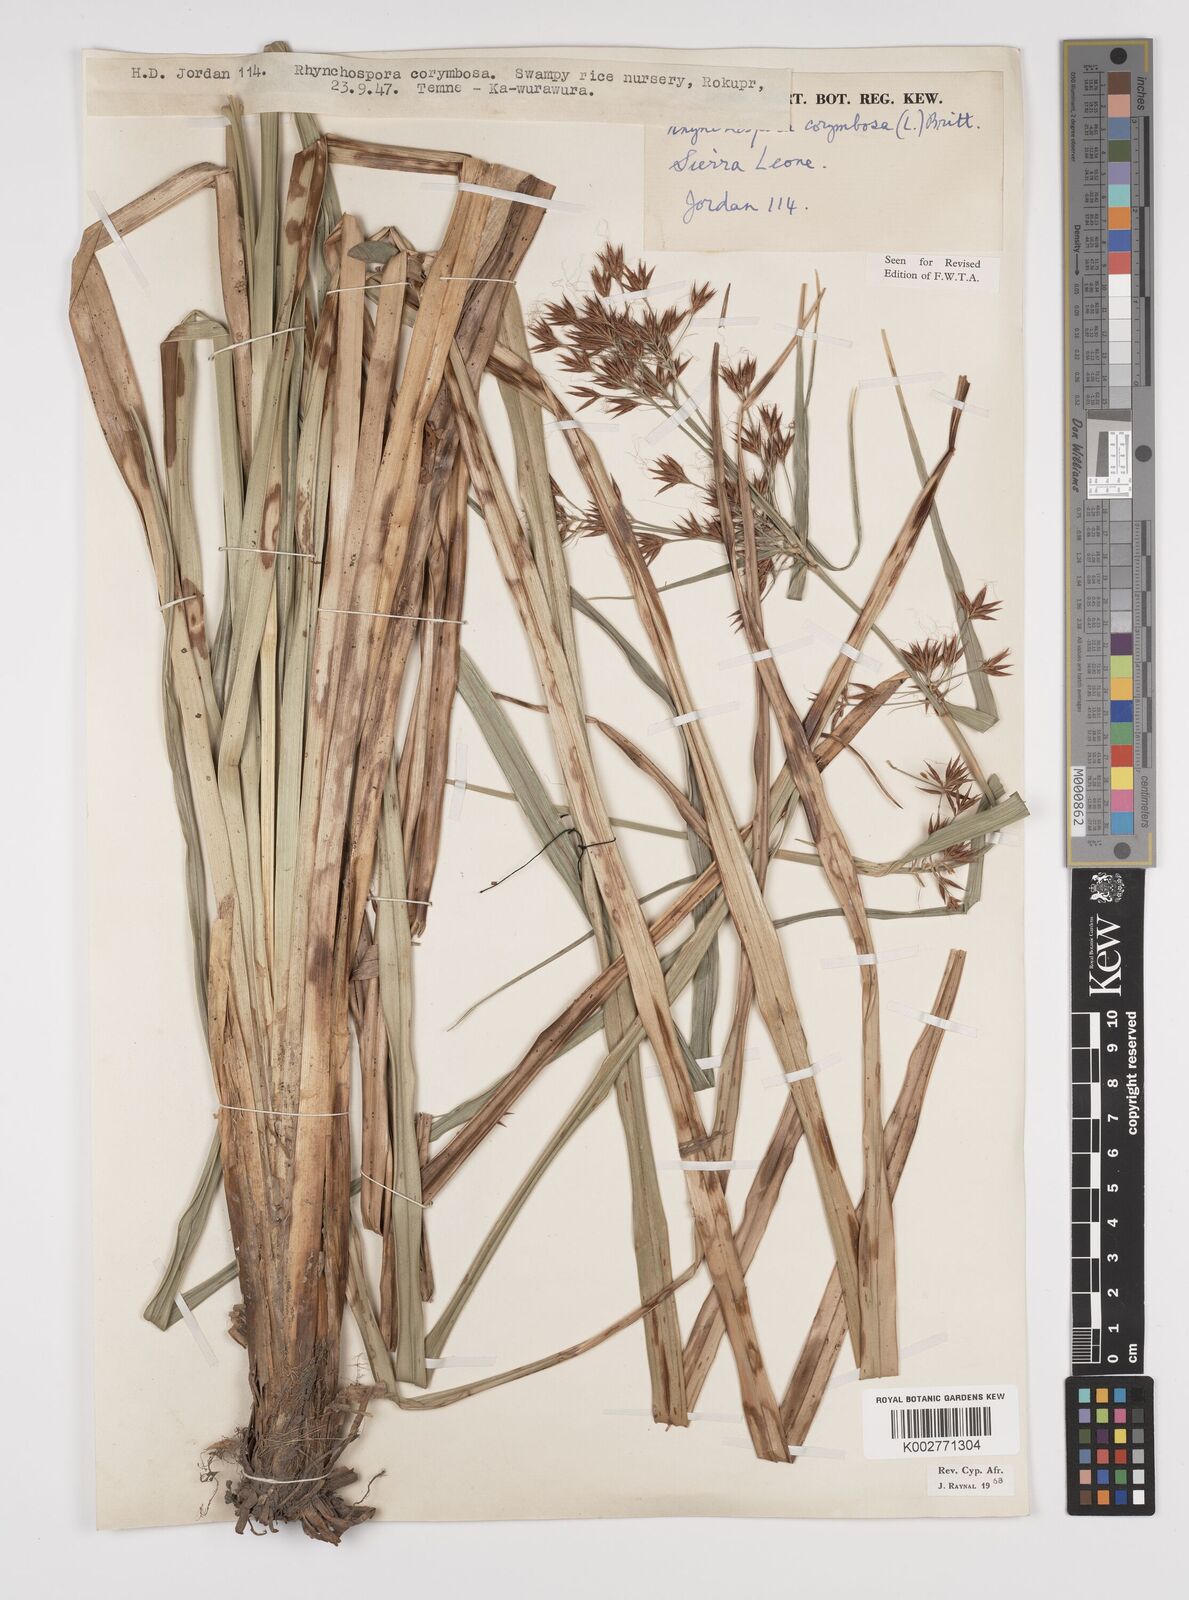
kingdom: Plantae
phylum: Tracheophyta
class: Liliopsida
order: Poales
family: Cyperaceae
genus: Rhynchospora
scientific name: Rhynchospora corymbosa
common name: Golden beak sedge
